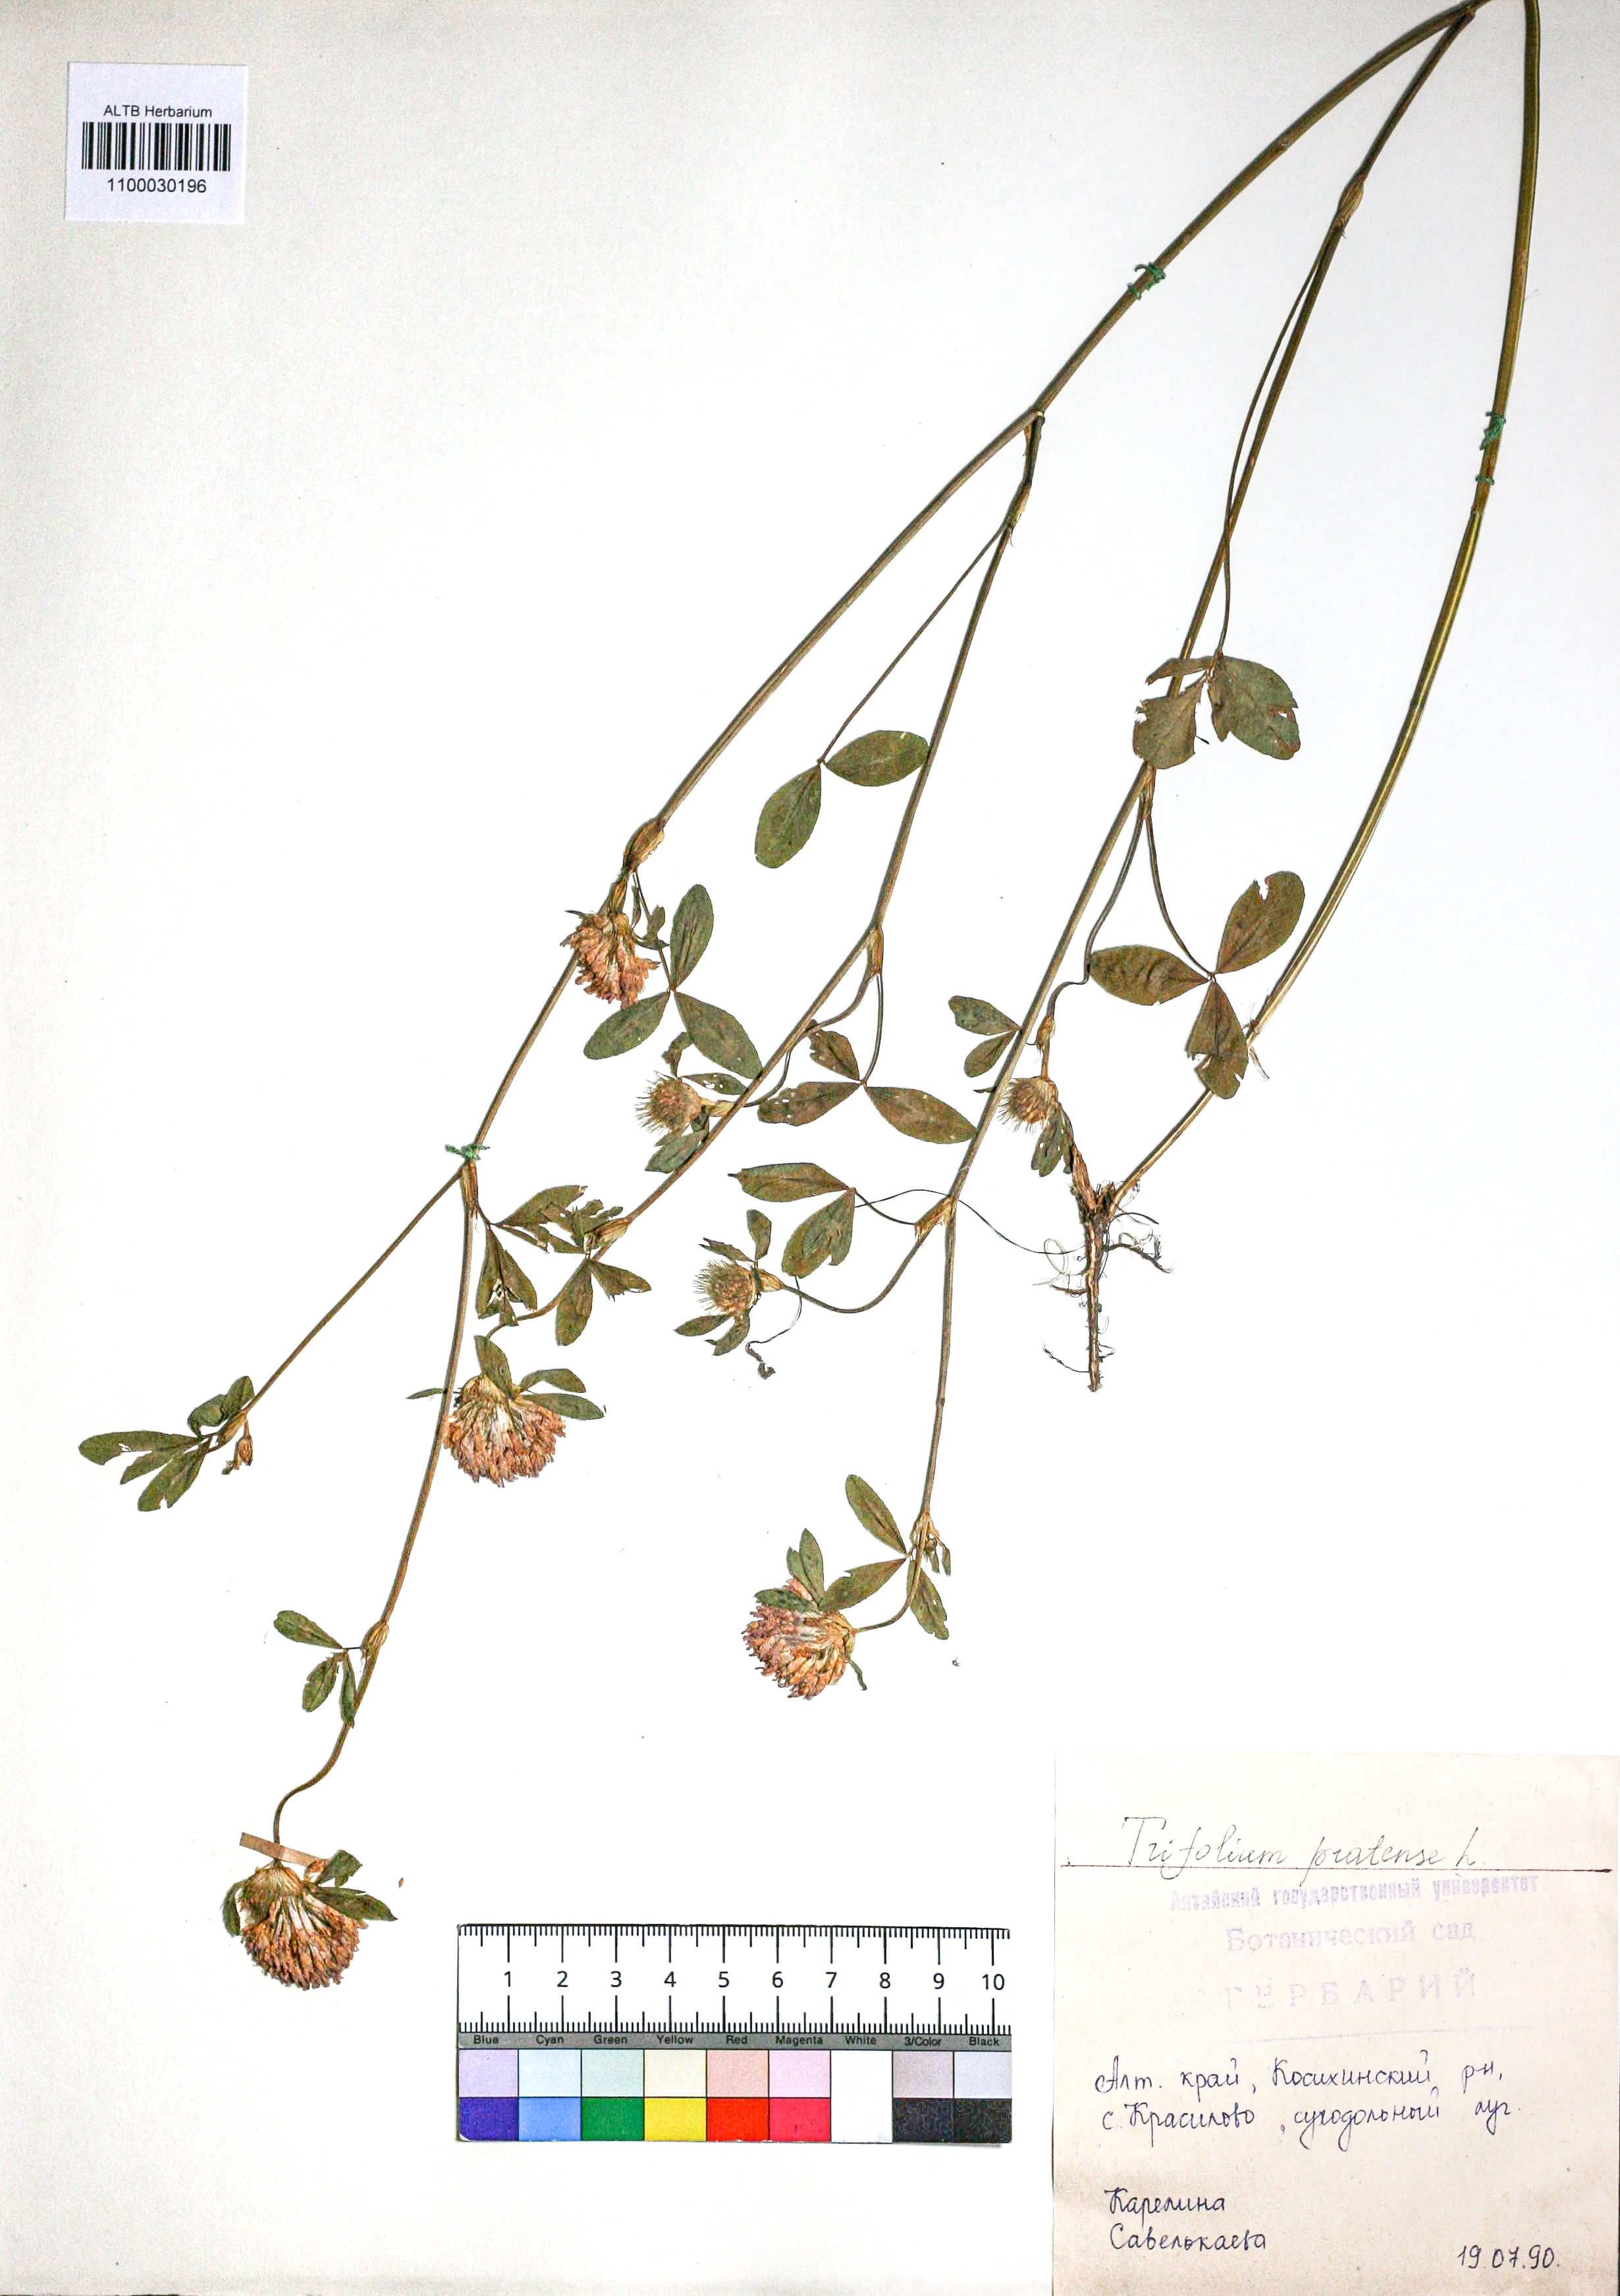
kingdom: Plantae
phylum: Tracheophyta
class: Magnoliopsida
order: Fabales
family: Fabaceae
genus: Trifolium
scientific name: Trifolium pratense
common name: Red clover
